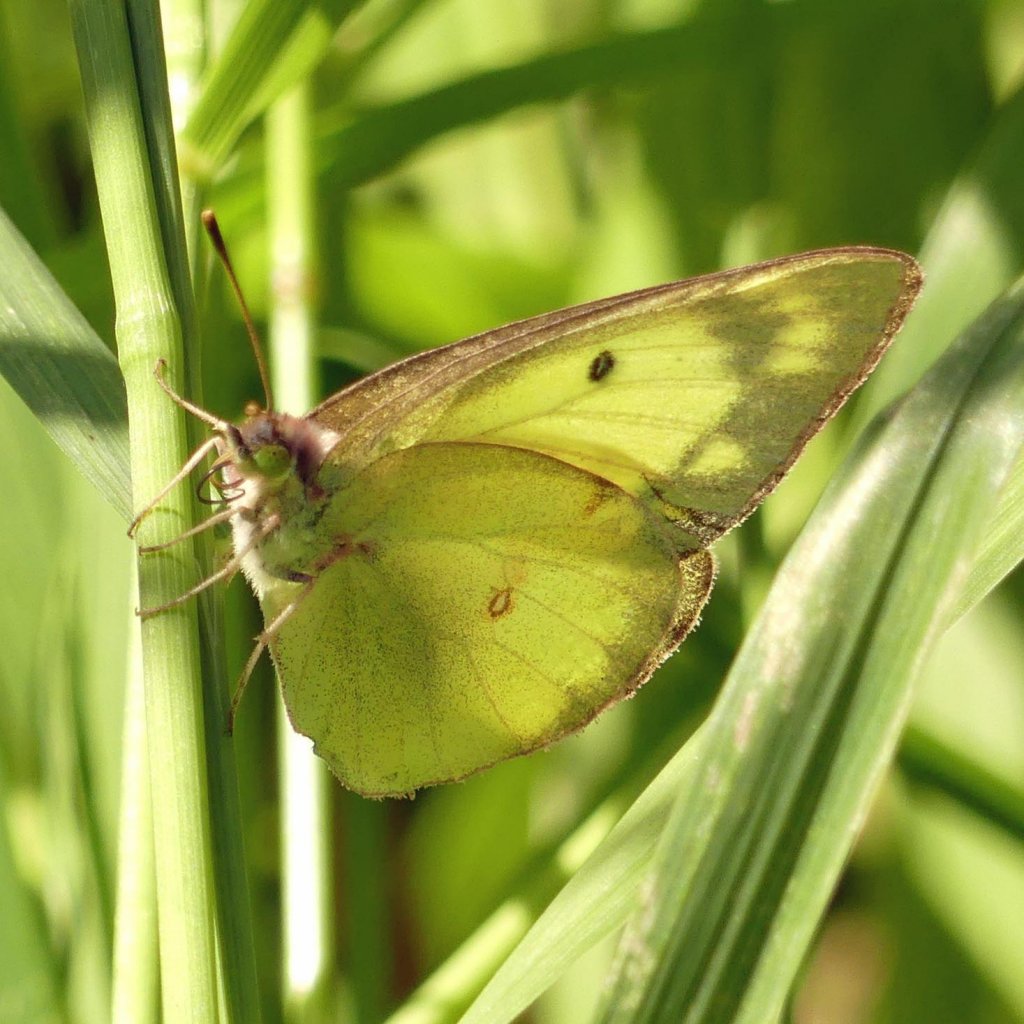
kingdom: Animalia
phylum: Arthropoda
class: Insecta
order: Lepidoptera
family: Pieridae
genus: Colias
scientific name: Colias philodice
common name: Clouded Sulphur
